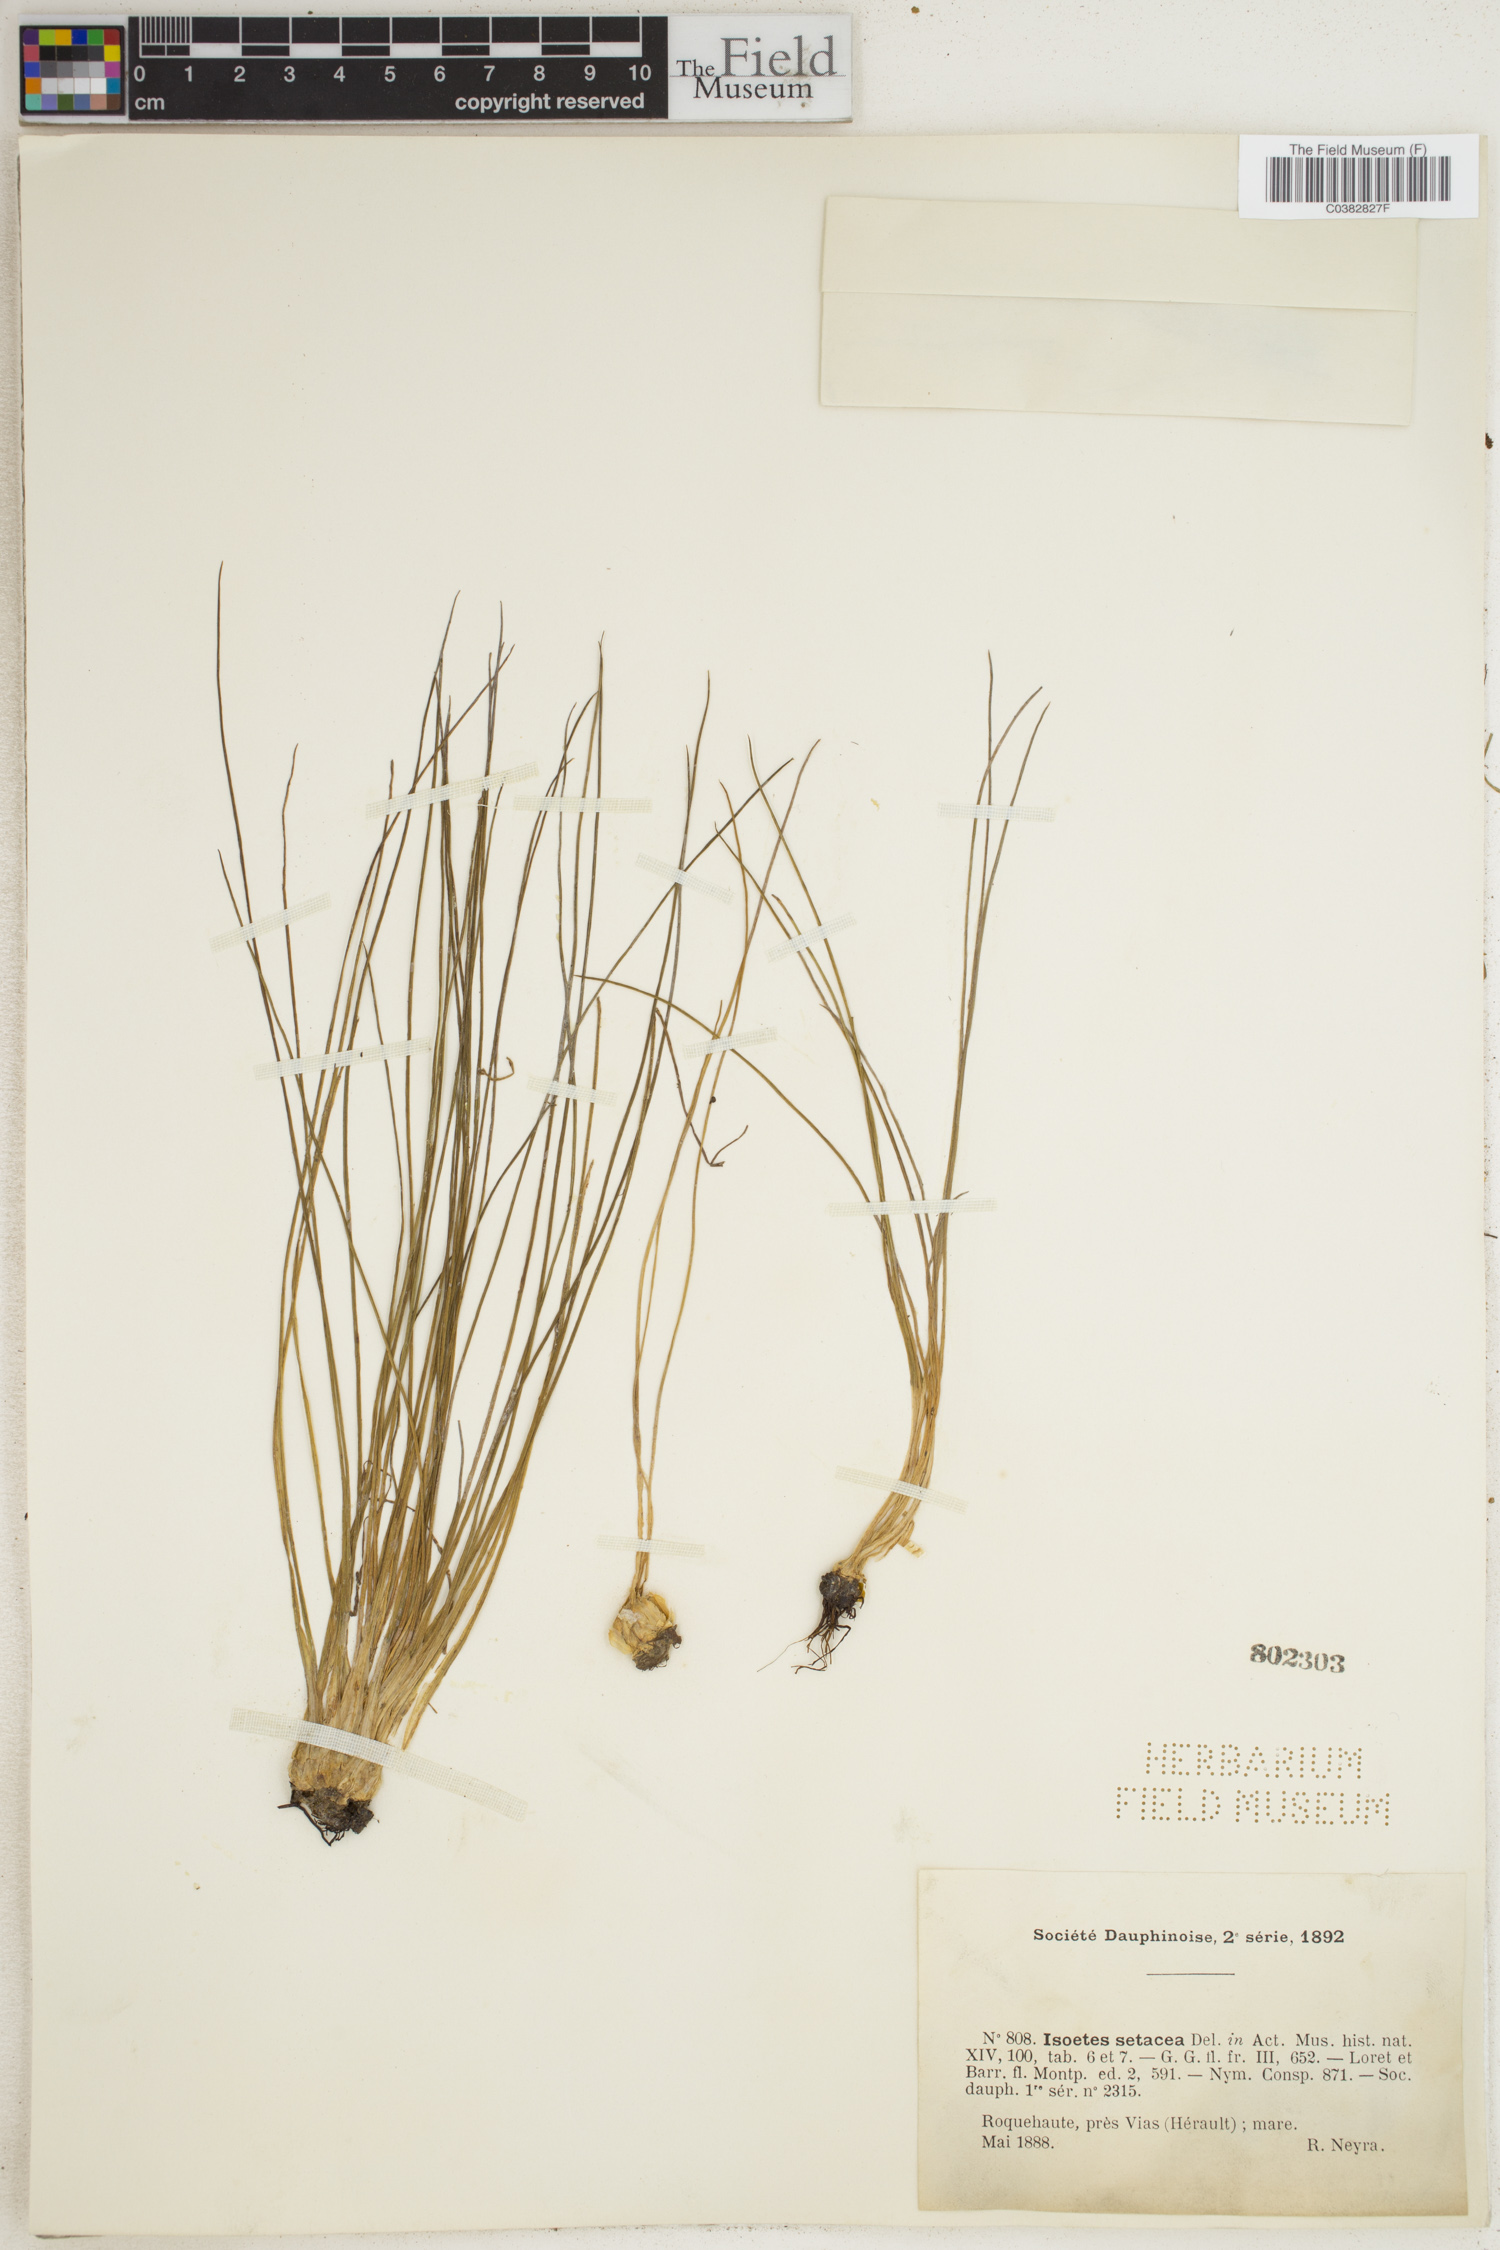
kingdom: Plantae
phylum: Tracheophyta
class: Lycopodiopsida
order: Isoetales
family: Isoetaceae
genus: Isoetes
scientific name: Isoetes lacustris
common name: Common quillwort
